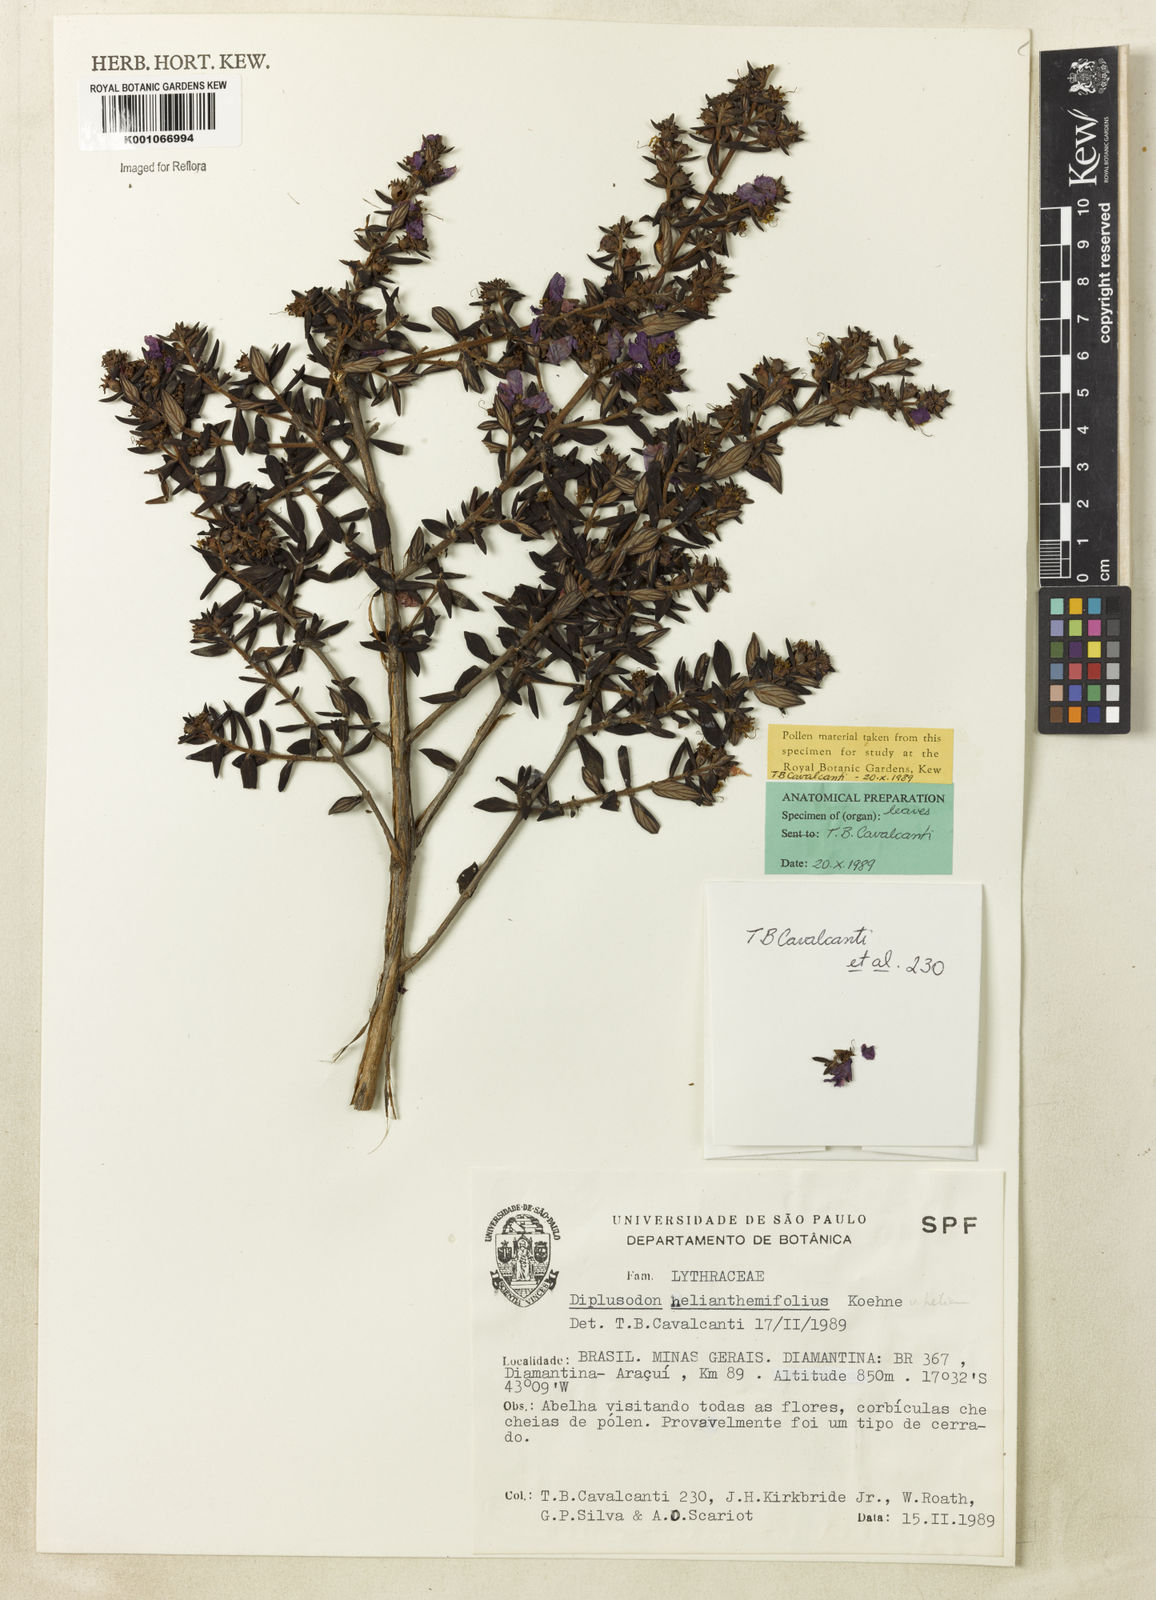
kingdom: Plantae
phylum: Tracheophyta
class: Magnoliopsida
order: Myrtales
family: Lythraceae
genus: Diplusodon
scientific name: Diplusodon helianthemifolius
